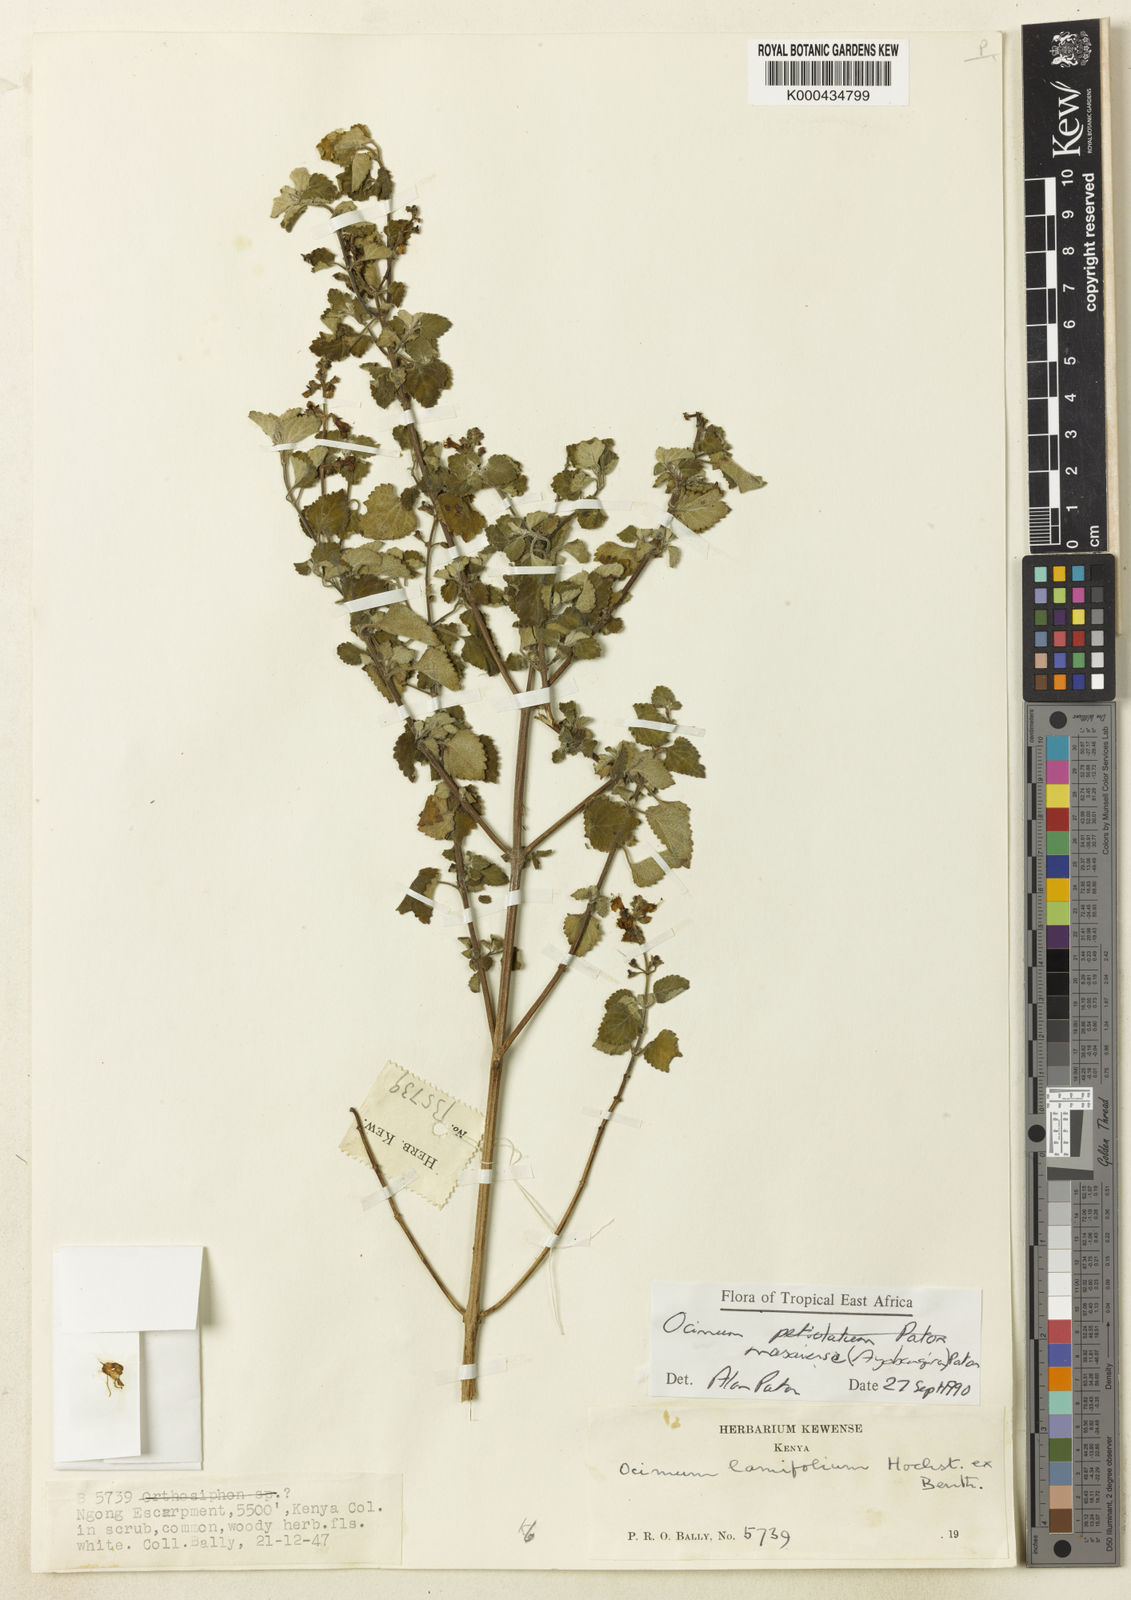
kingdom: Plantae
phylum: Tracheophyta
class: Magnoliopsida
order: Lamiales
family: Lamiaceae
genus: Ocimum
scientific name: Ocimum masaiense
